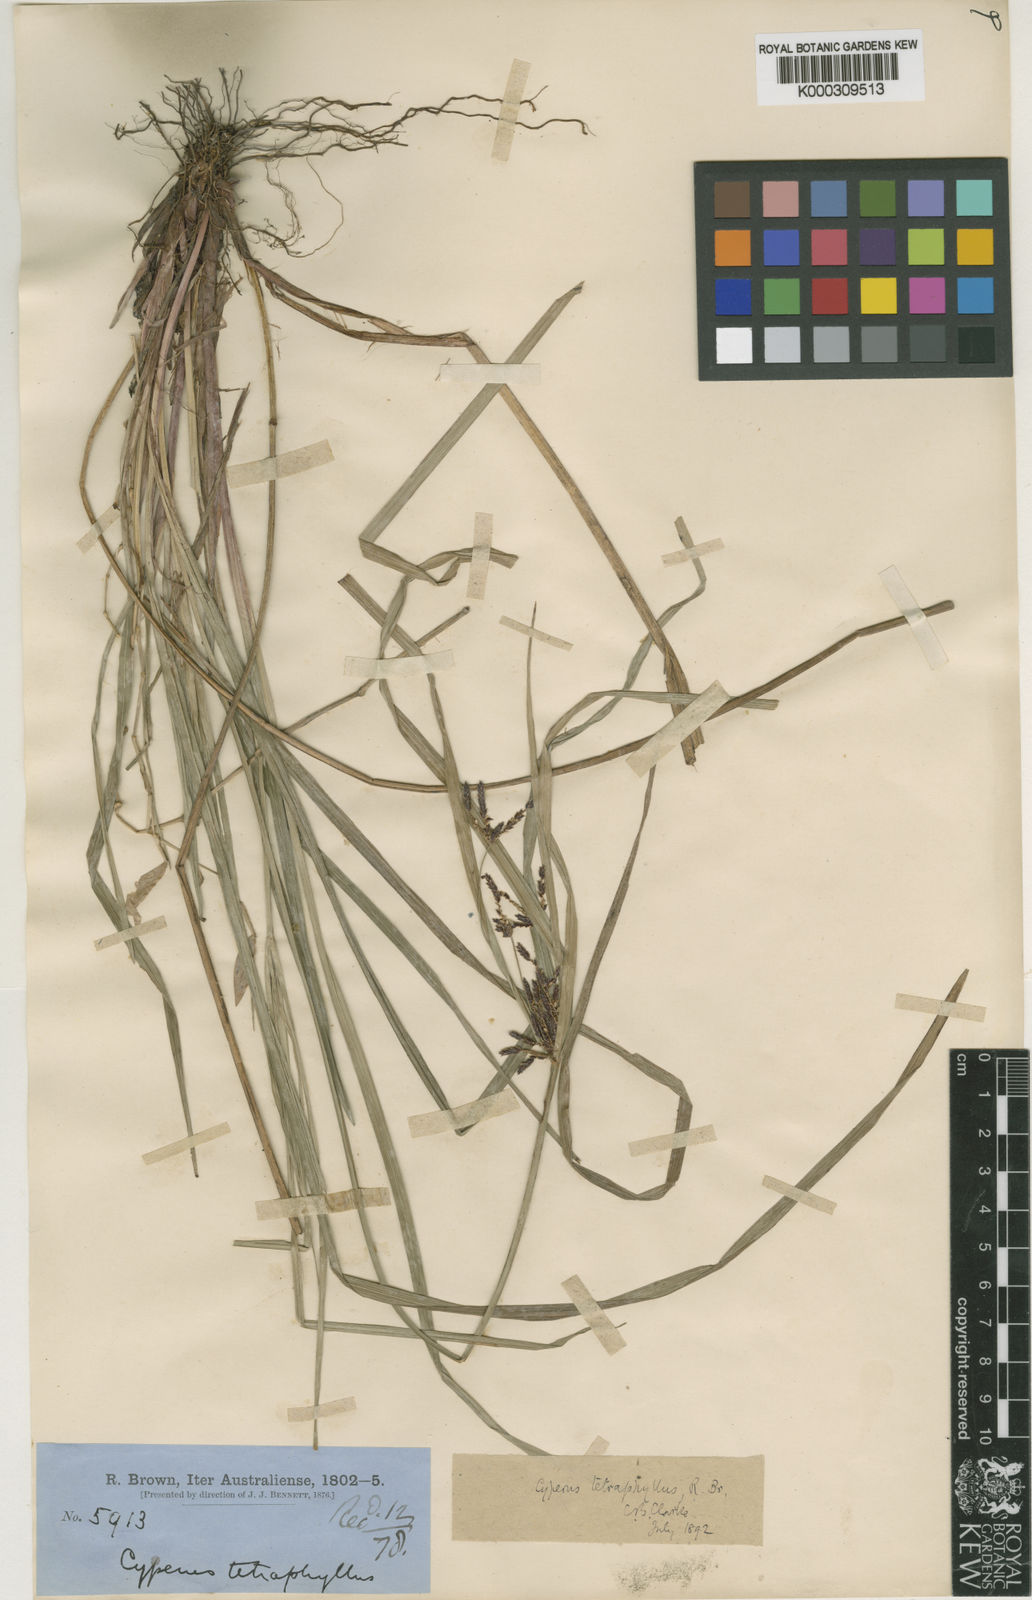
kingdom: Plantae
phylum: Tracheophyta
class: Liliopsida
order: Poales
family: Cyperaceae
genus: Cyperus
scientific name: Cyperus tetraphyllus
